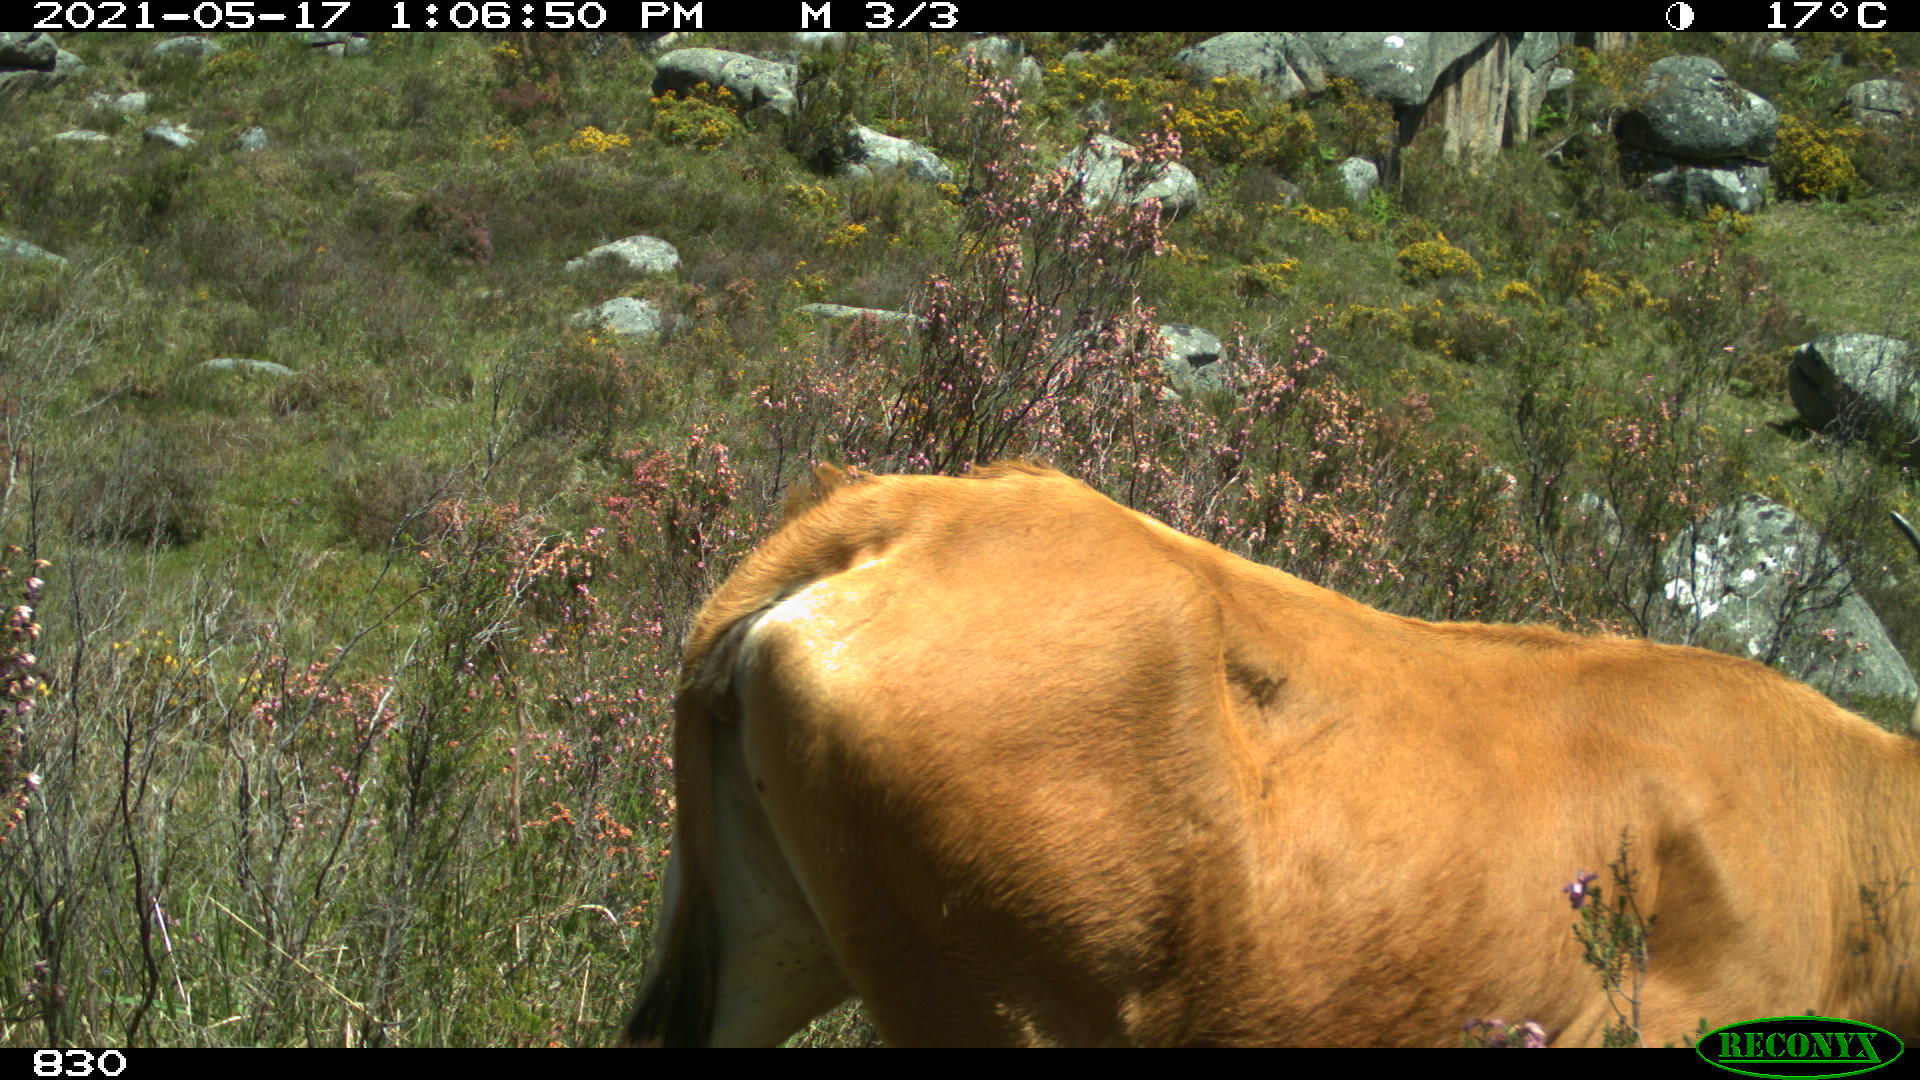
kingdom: Animalia
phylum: Chordata
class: Mammalia
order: Artiodactyla
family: Bovidae
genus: Bos
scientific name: Bos taurus
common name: Domesticated cattle
